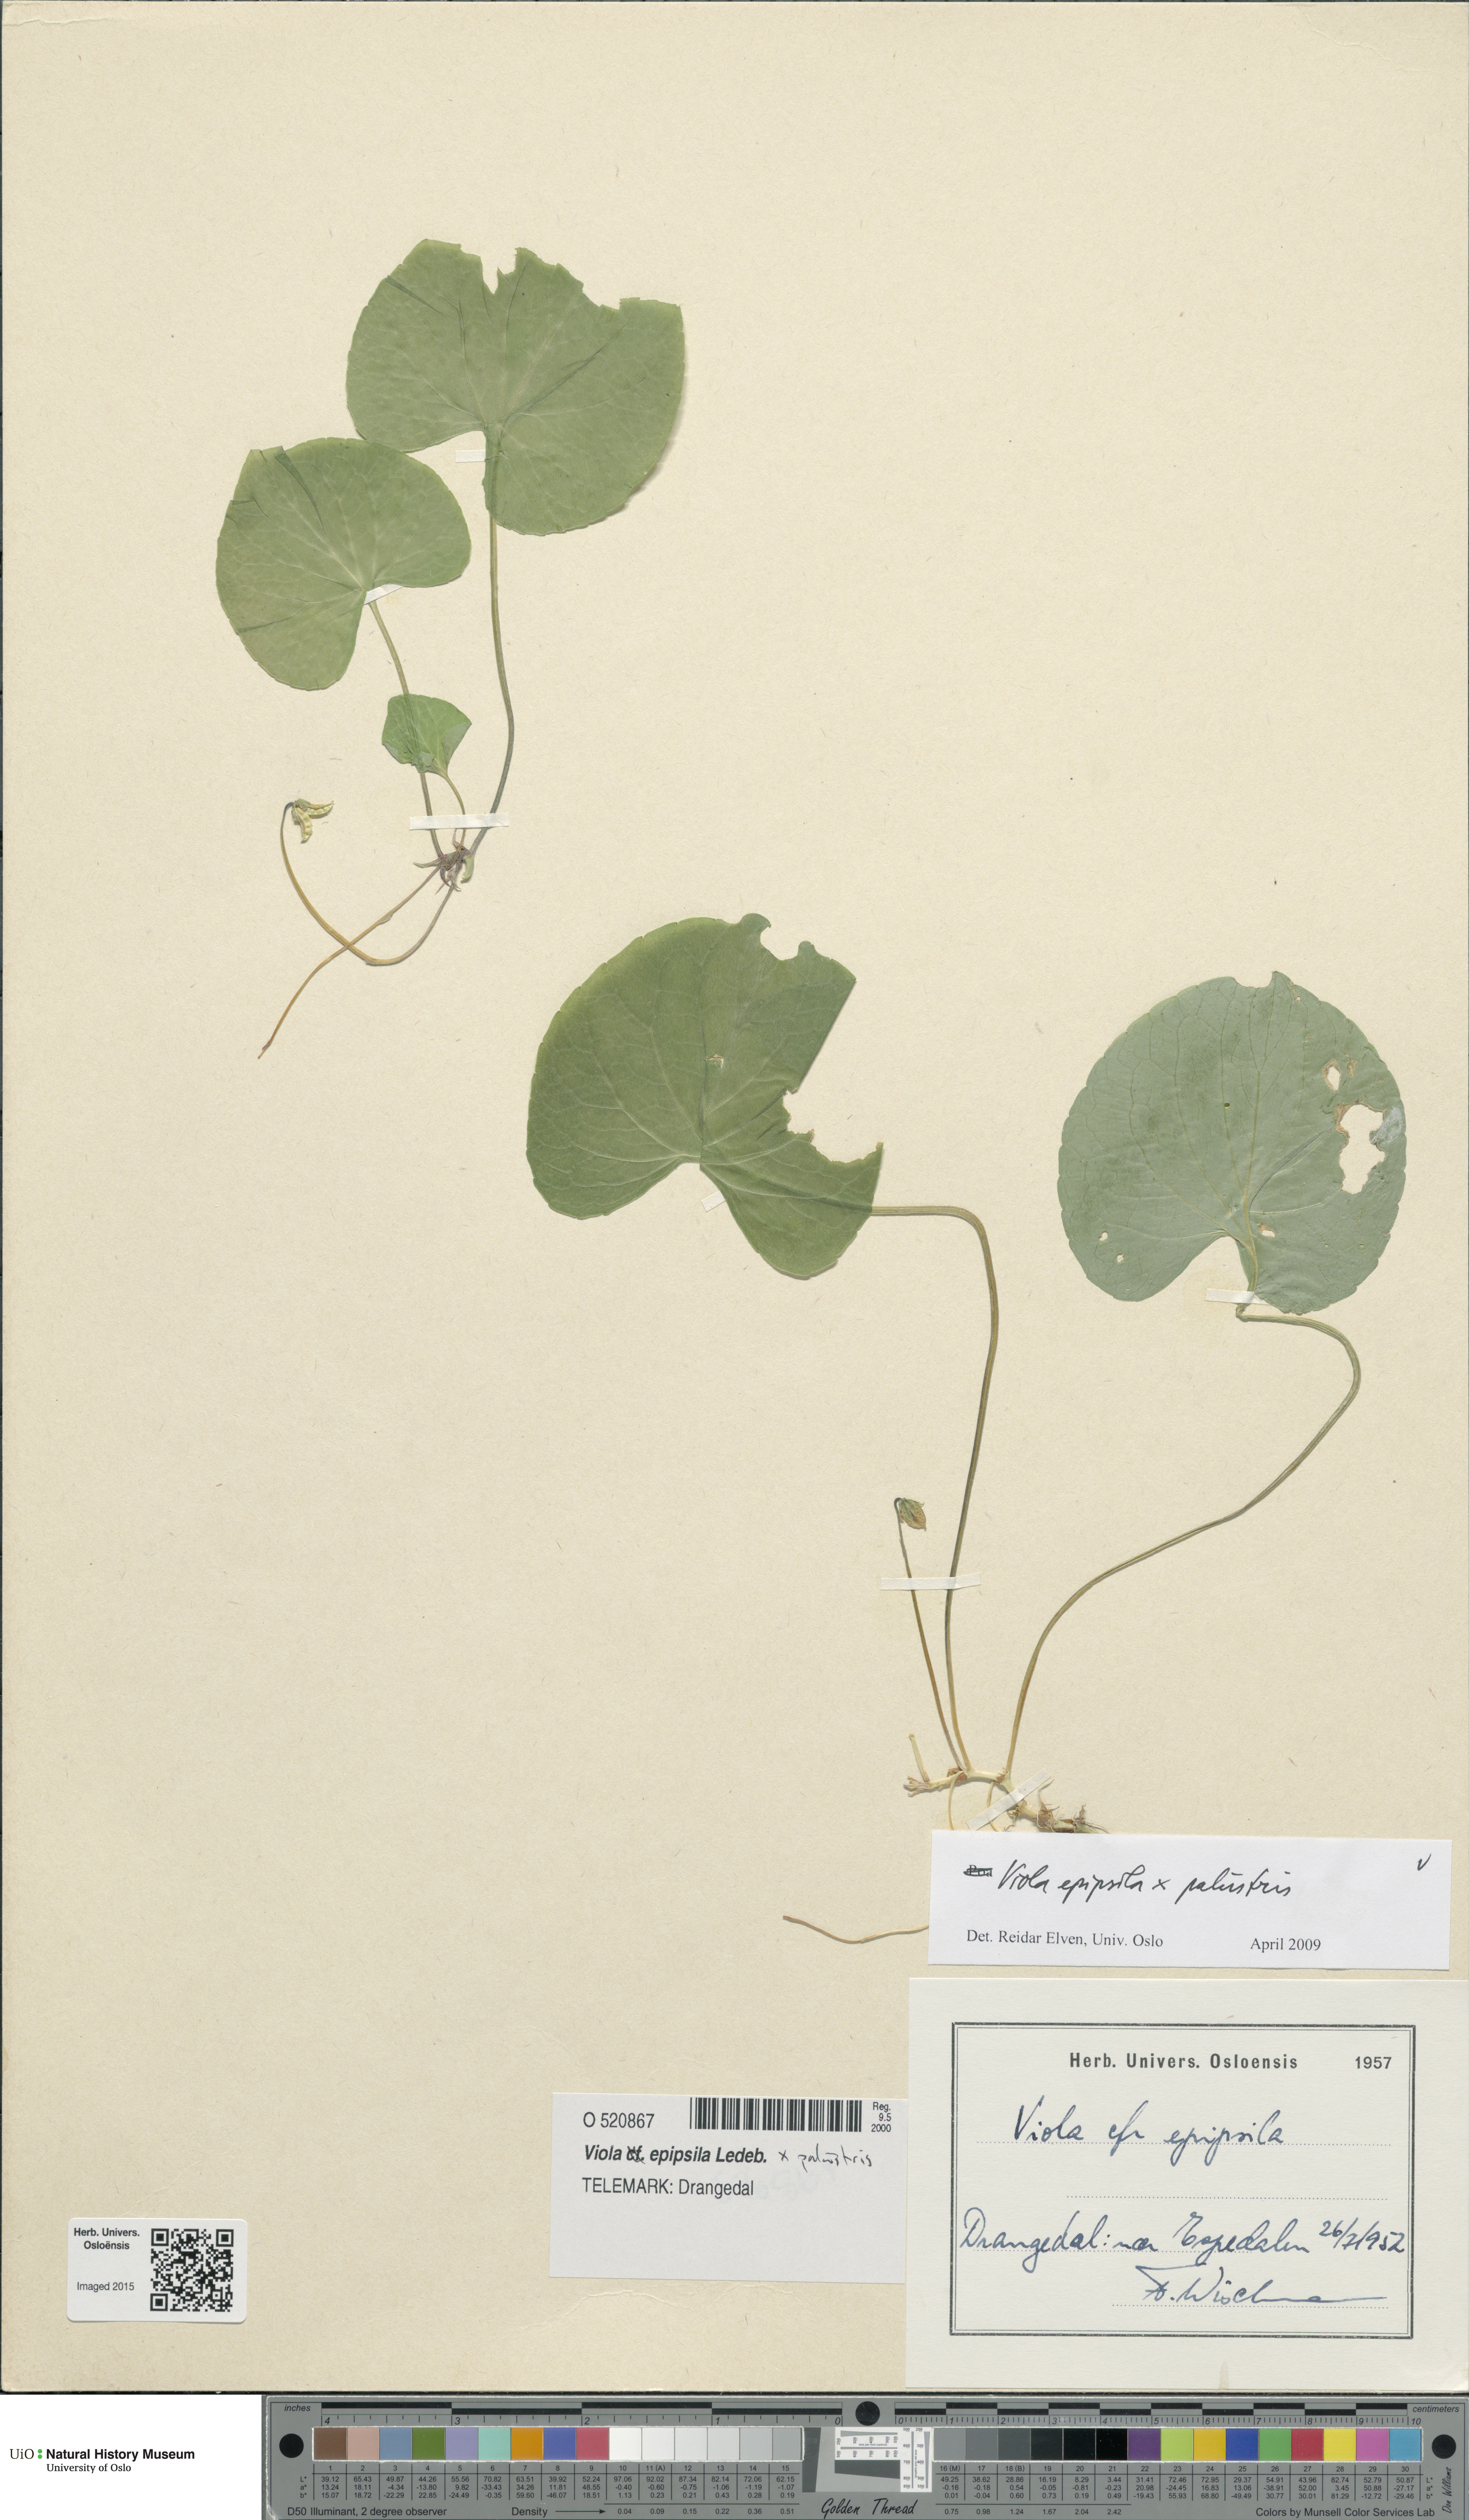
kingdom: Plantae
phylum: Tracheophyta
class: Magnoliopsida
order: Malpighiales
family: Violaceae
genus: Viola
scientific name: Viola
